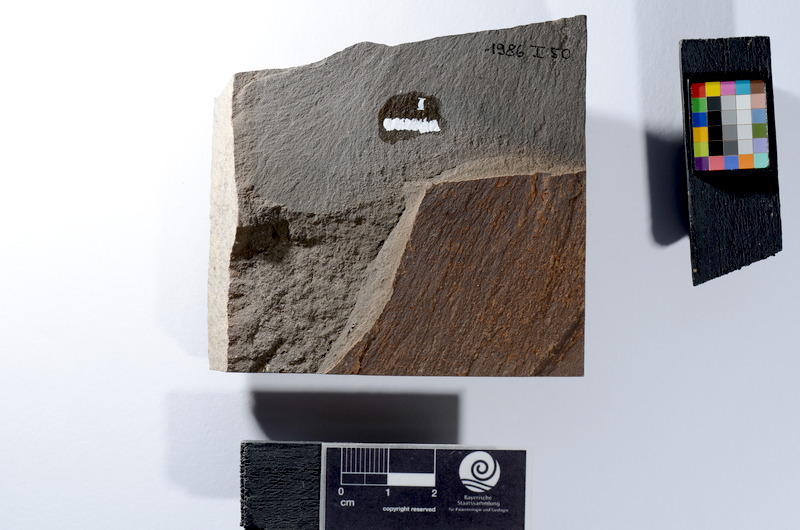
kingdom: Animalia
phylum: Chordata
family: Leptolepididae
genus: Leptolepis
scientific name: Leptolepis coryphaenoides
